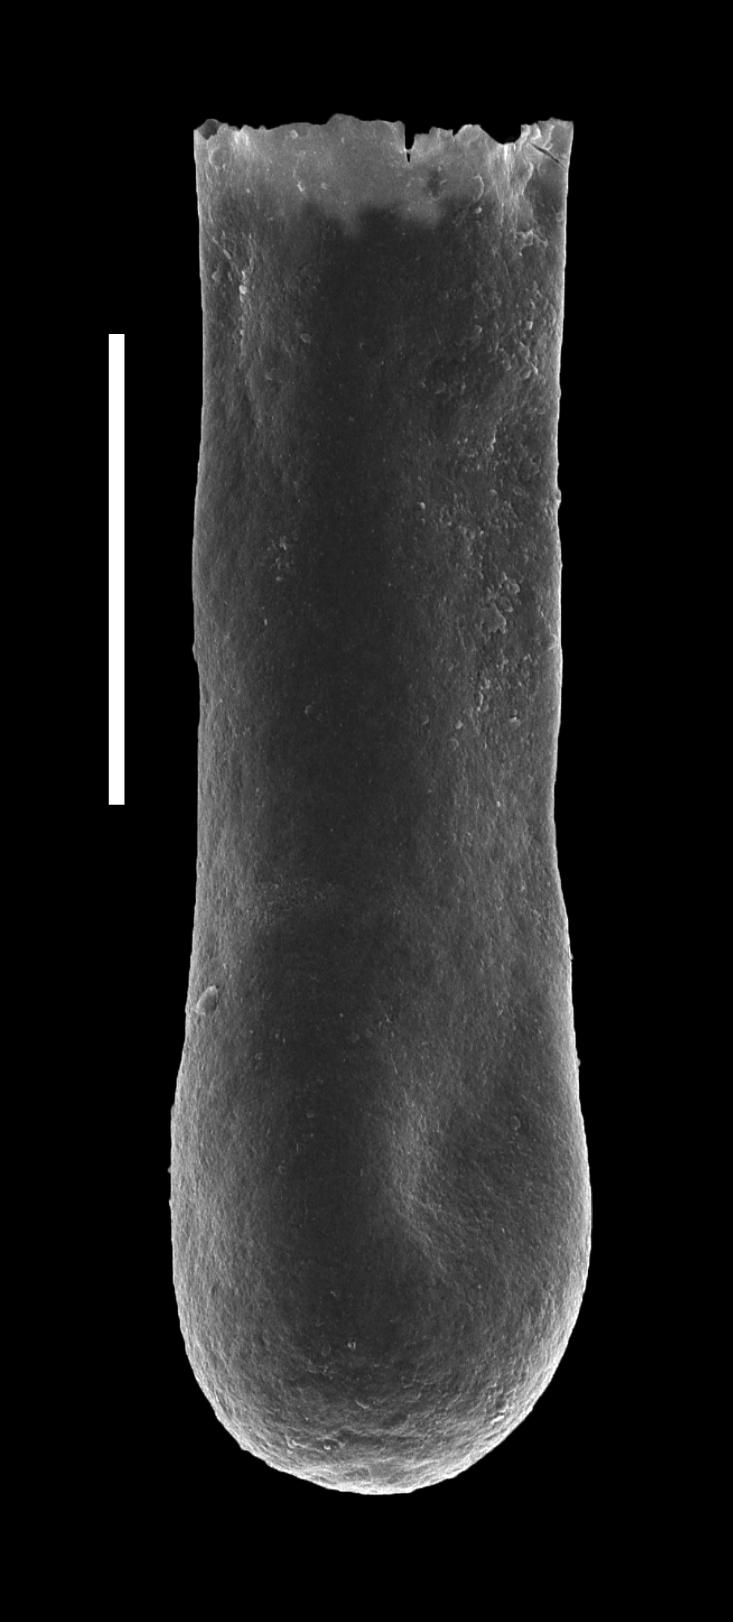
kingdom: Animalia
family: Conochitinidae
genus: Conochitina
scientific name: Conochitina
